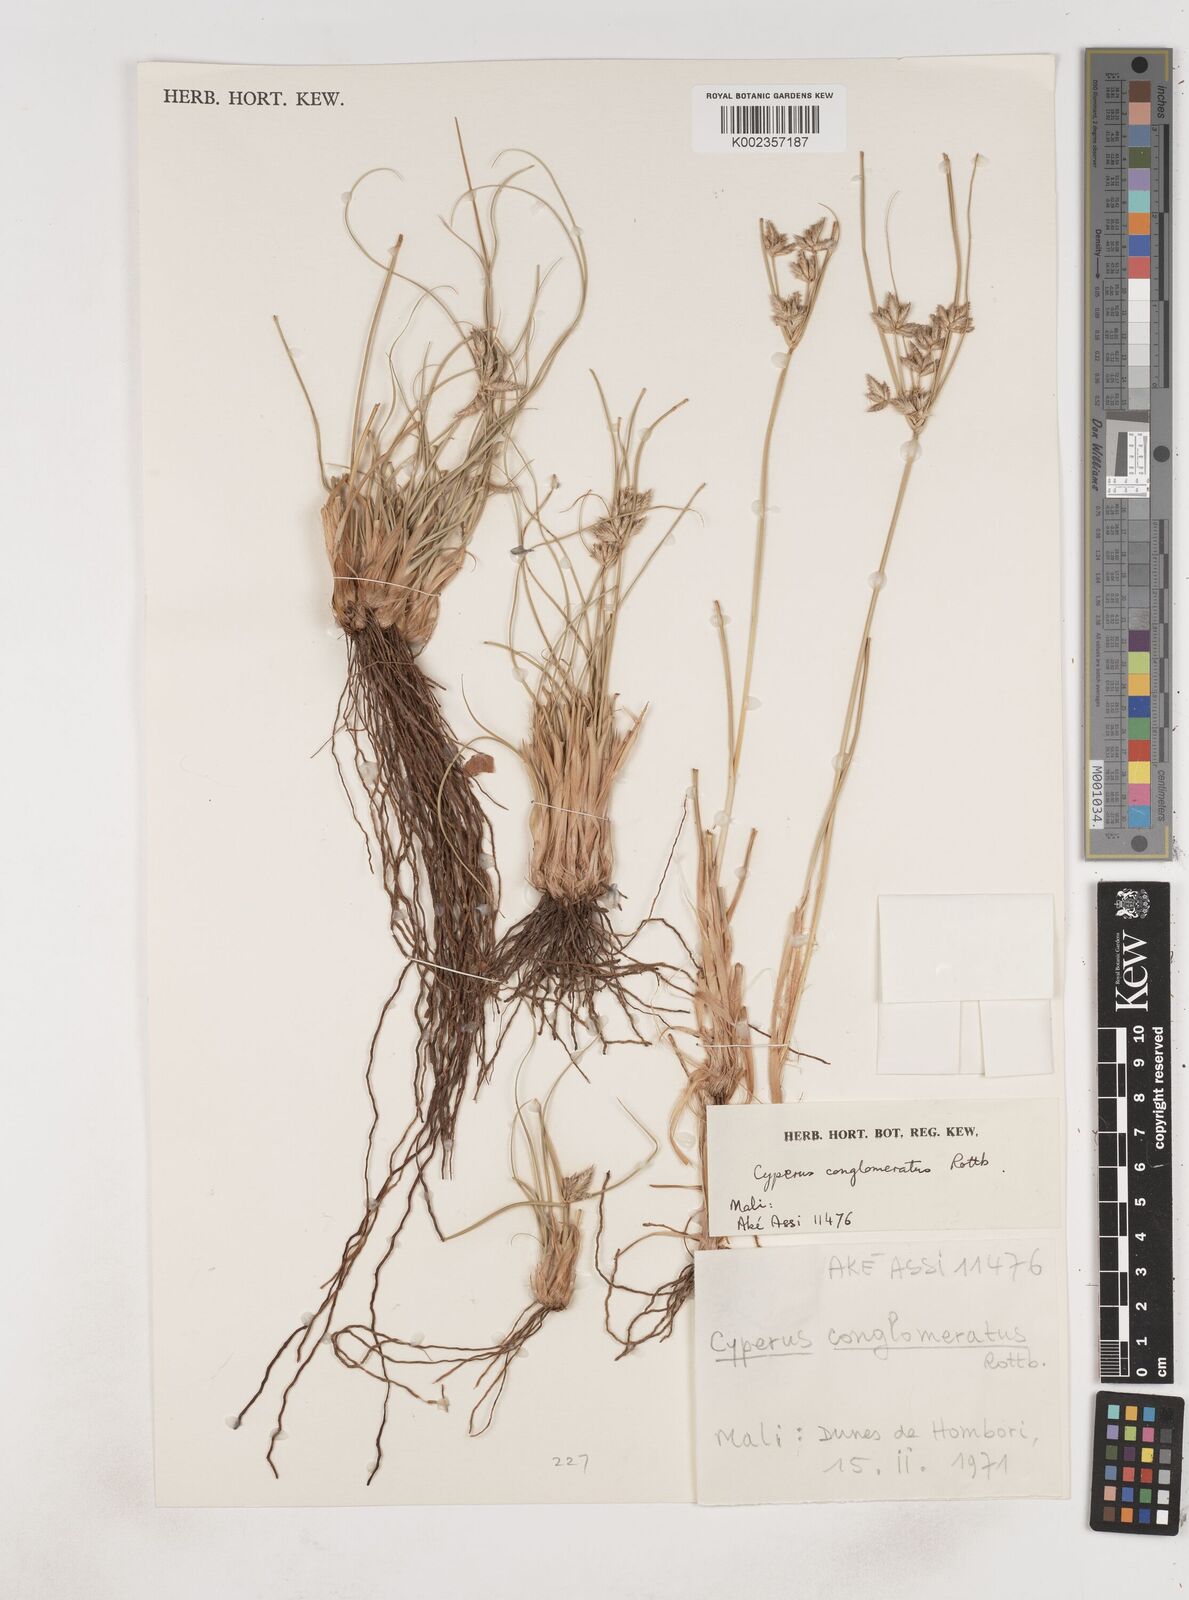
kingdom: Plantae
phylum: Tracheophyta
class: Liliopsida
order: Poales
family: Cyperaceae
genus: Cyperus
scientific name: Cyperus jeminicus
